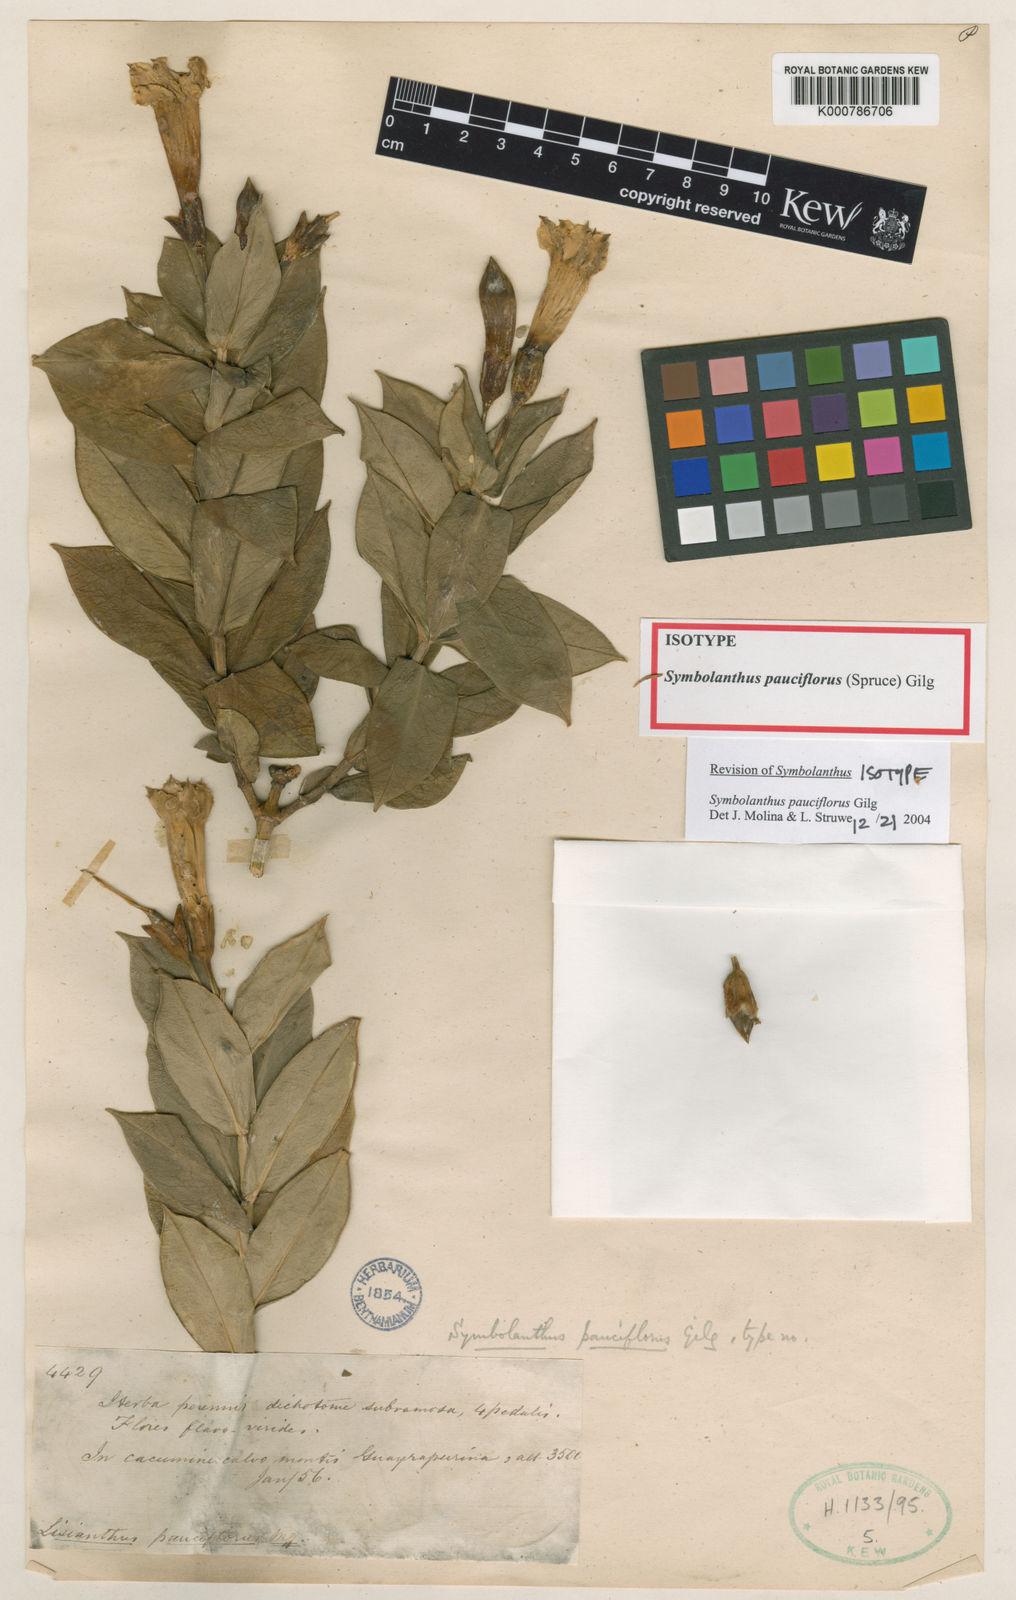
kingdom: Plantae
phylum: Tracheophyta
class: Magnoliopsida
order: Gentianales
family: Gentianaceae
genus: Symbolanthus
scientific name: Symbolanthus pauciflorus
